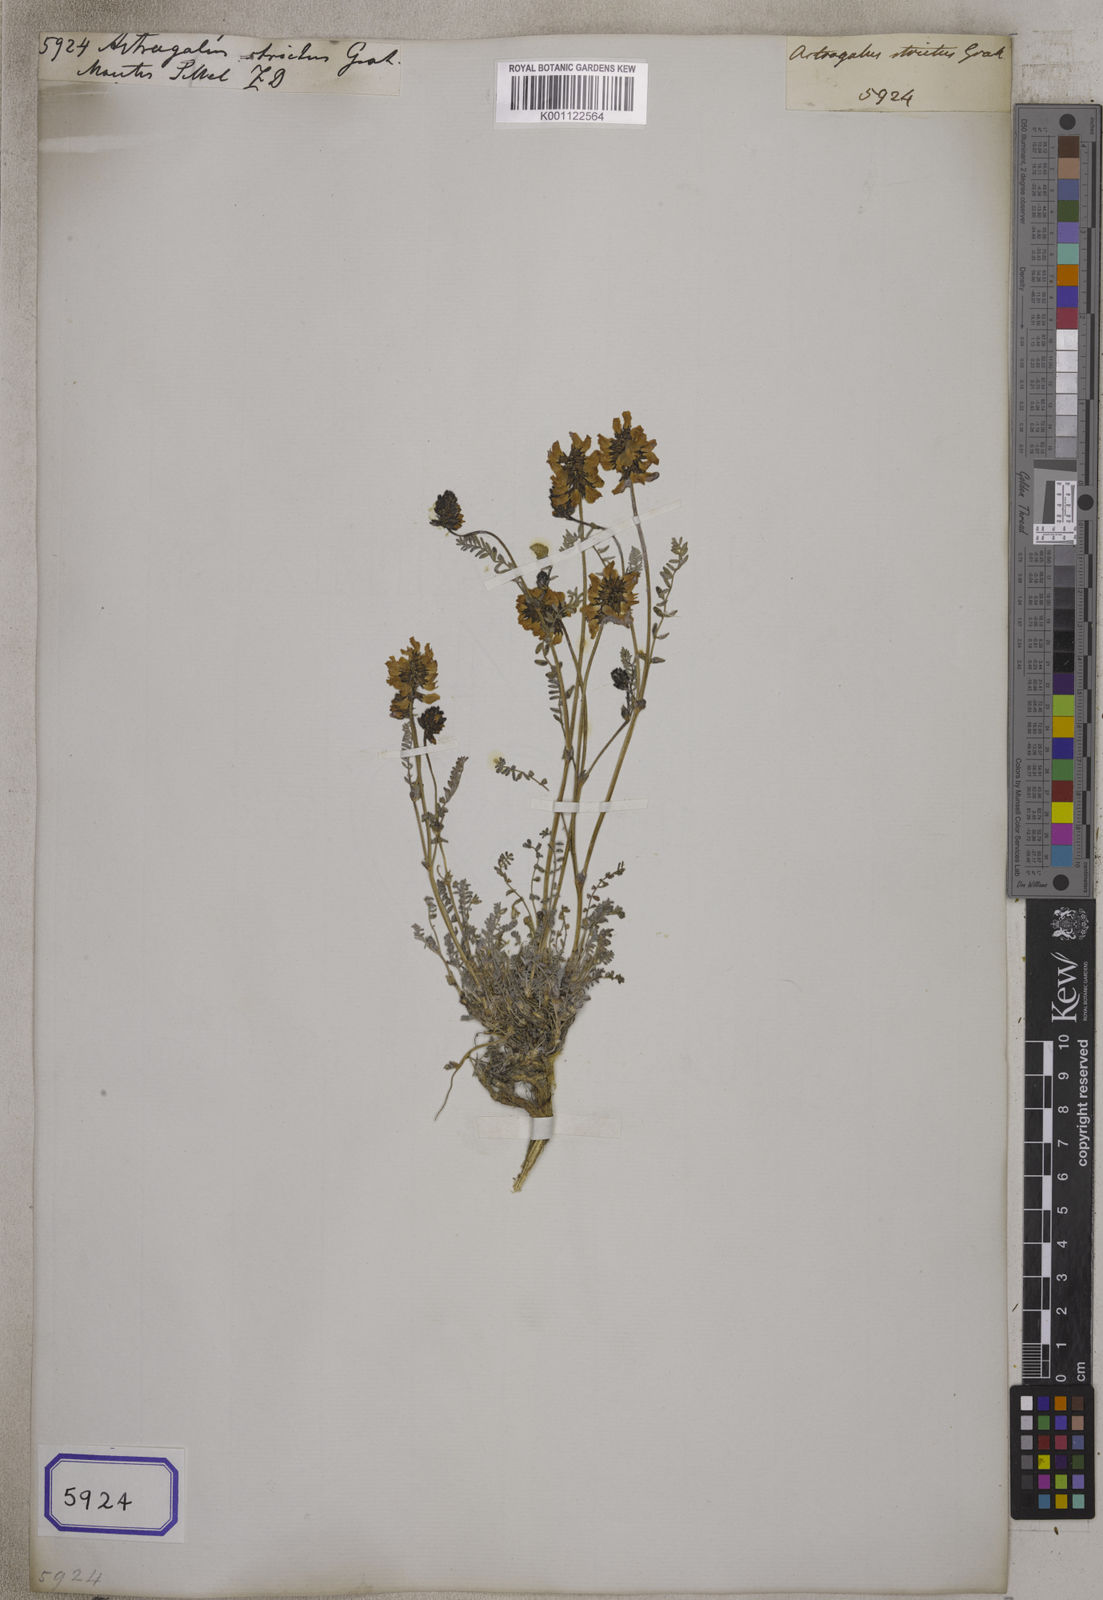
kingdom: Plantae
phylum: Tracheophyta
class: Magnoliopsida
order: Fabales
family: Fabaceae
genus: Astragalus
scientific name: Astragalus
